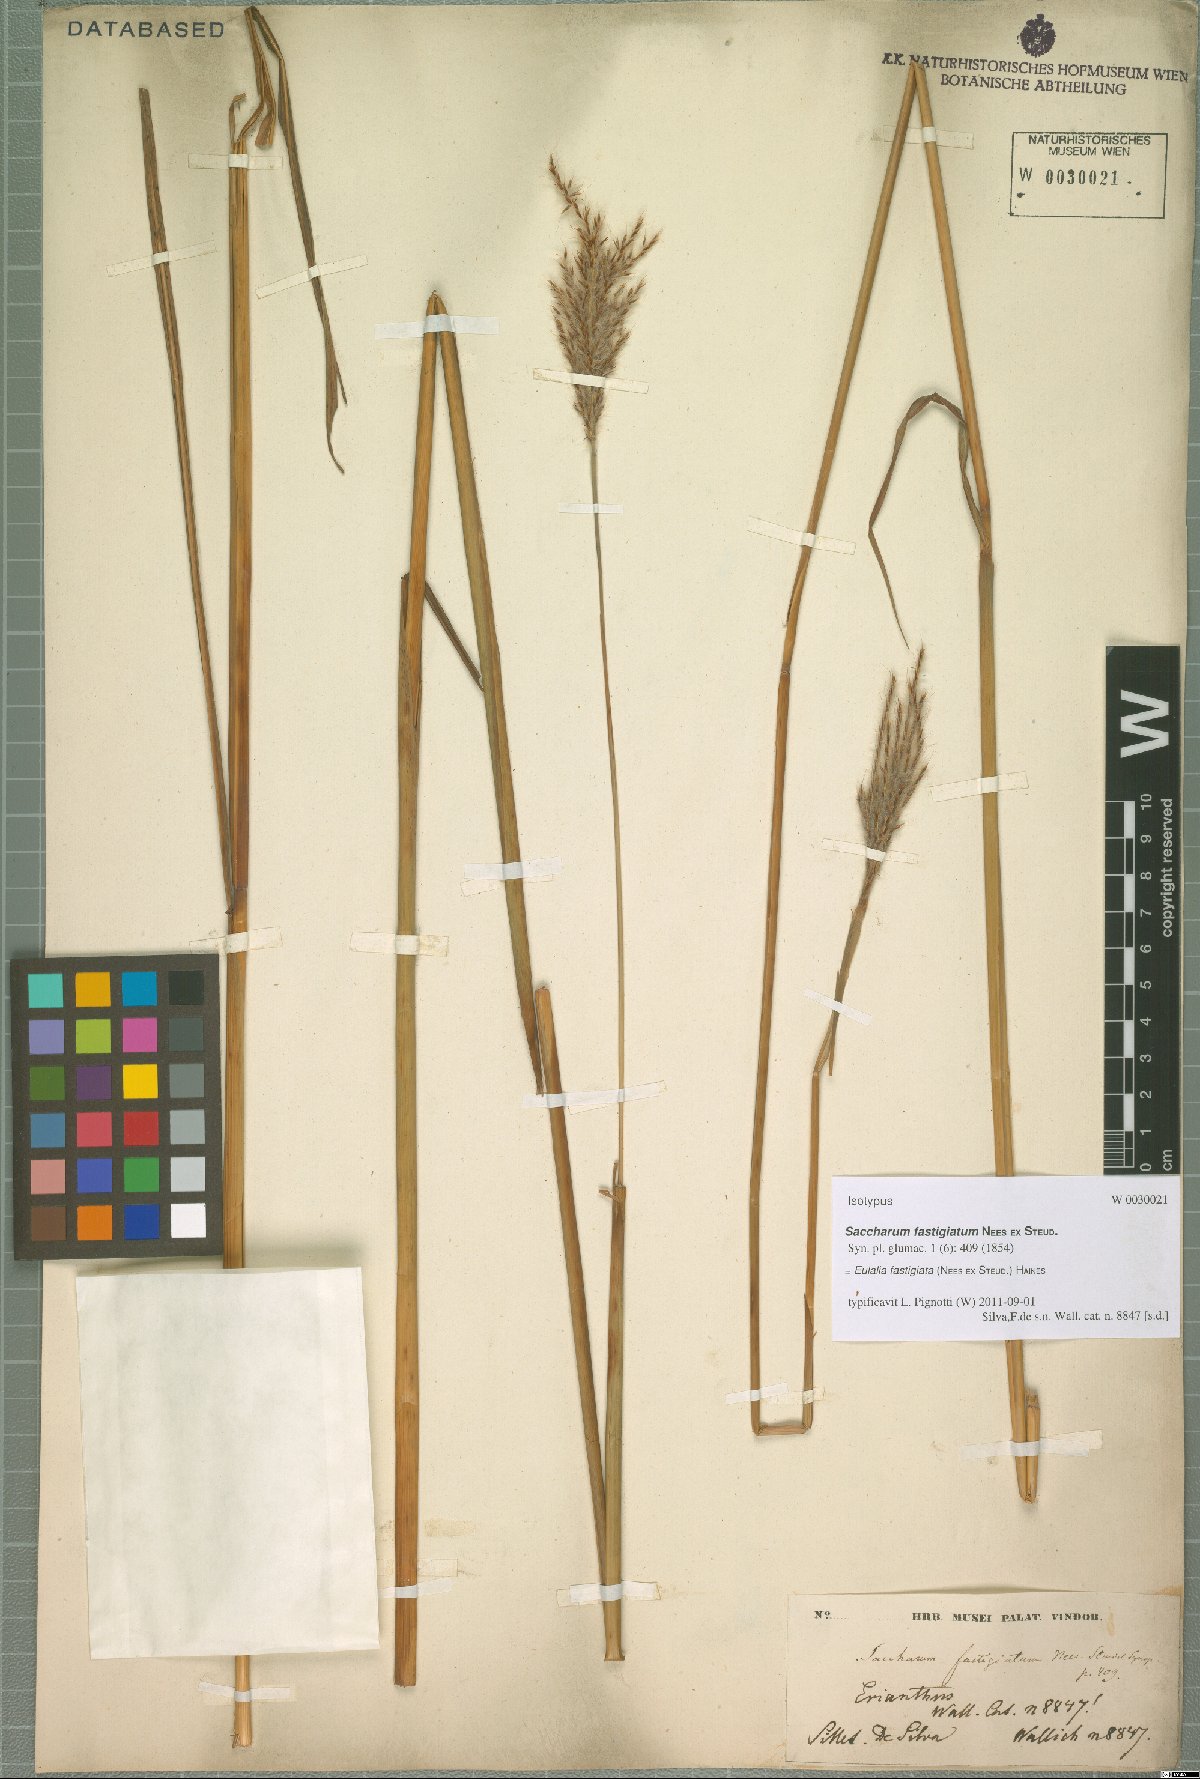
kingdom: Plantae
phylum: Tracheophyta
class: Liliopsida
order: Poales
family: Poaceae
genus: Eulalia
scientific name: Eulalia fastigiata
